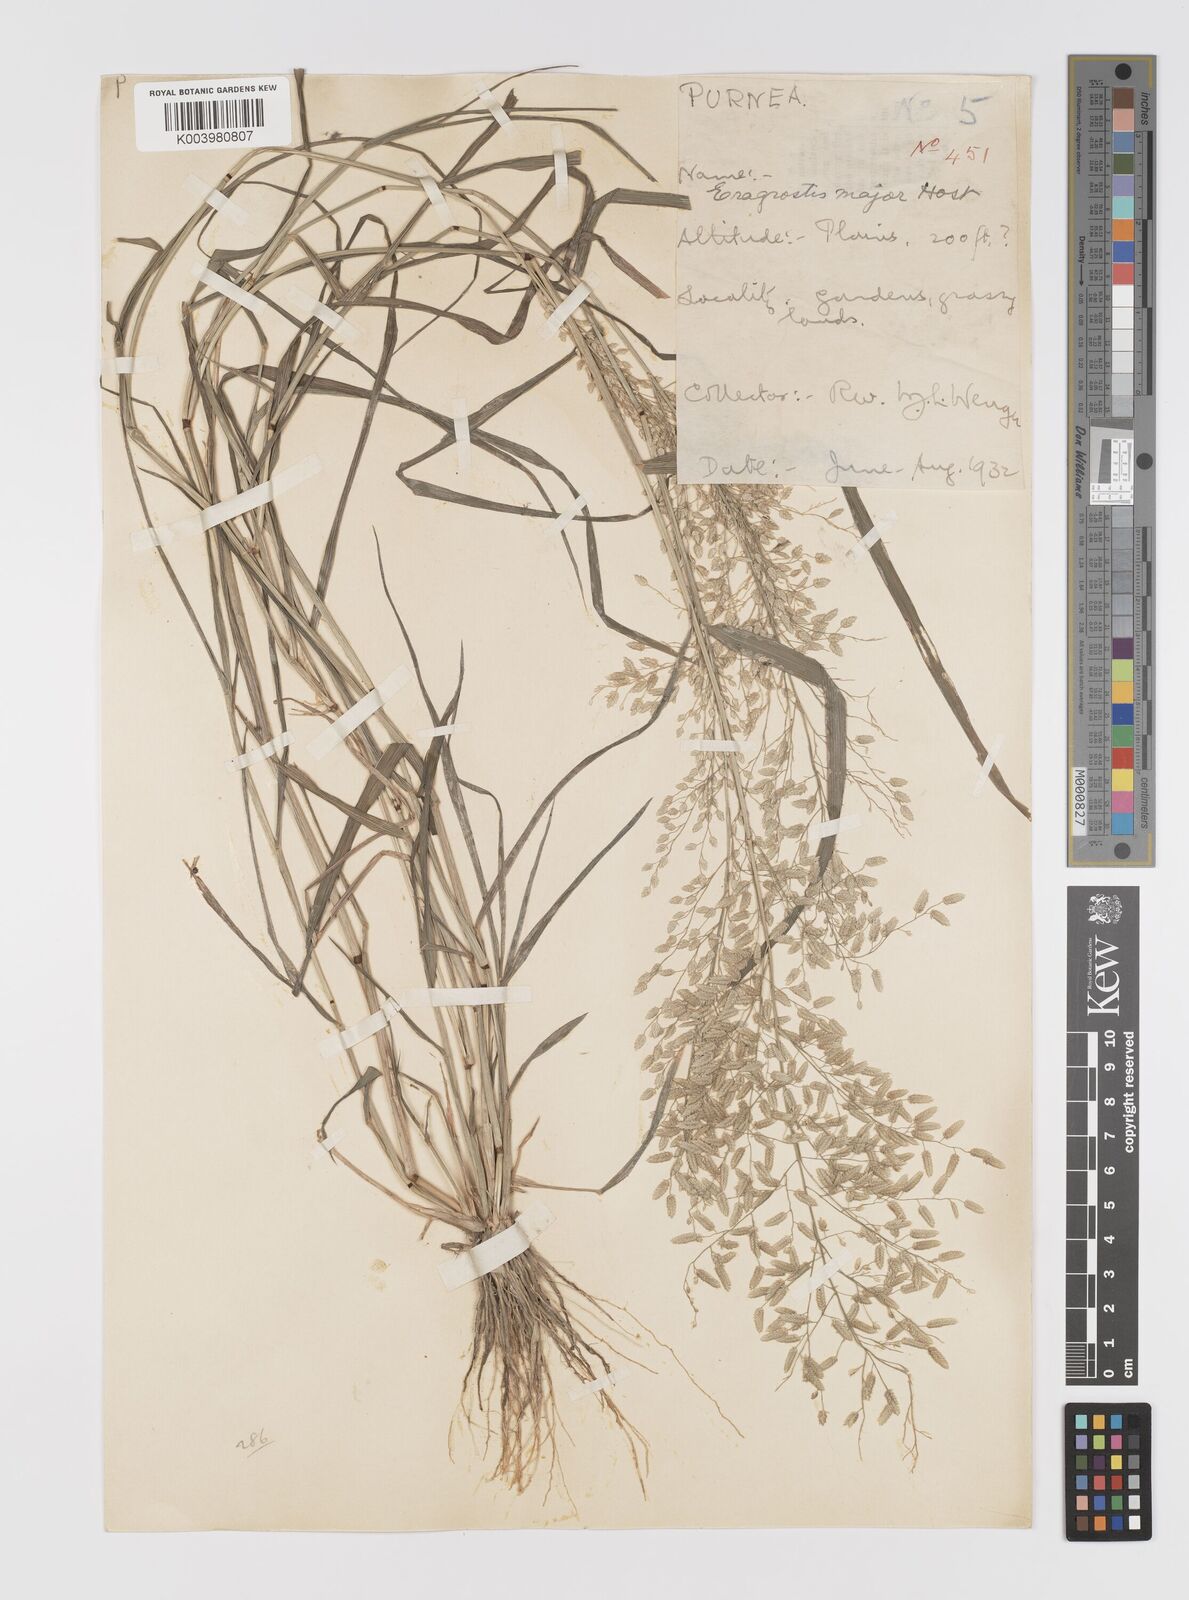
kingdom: Plantae
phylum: Tracheophyta
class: Liliopsida
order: Poales
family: Poaceae
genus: Eragrostis
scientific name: Eragrostis cilianensis
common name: Stinkgrass
